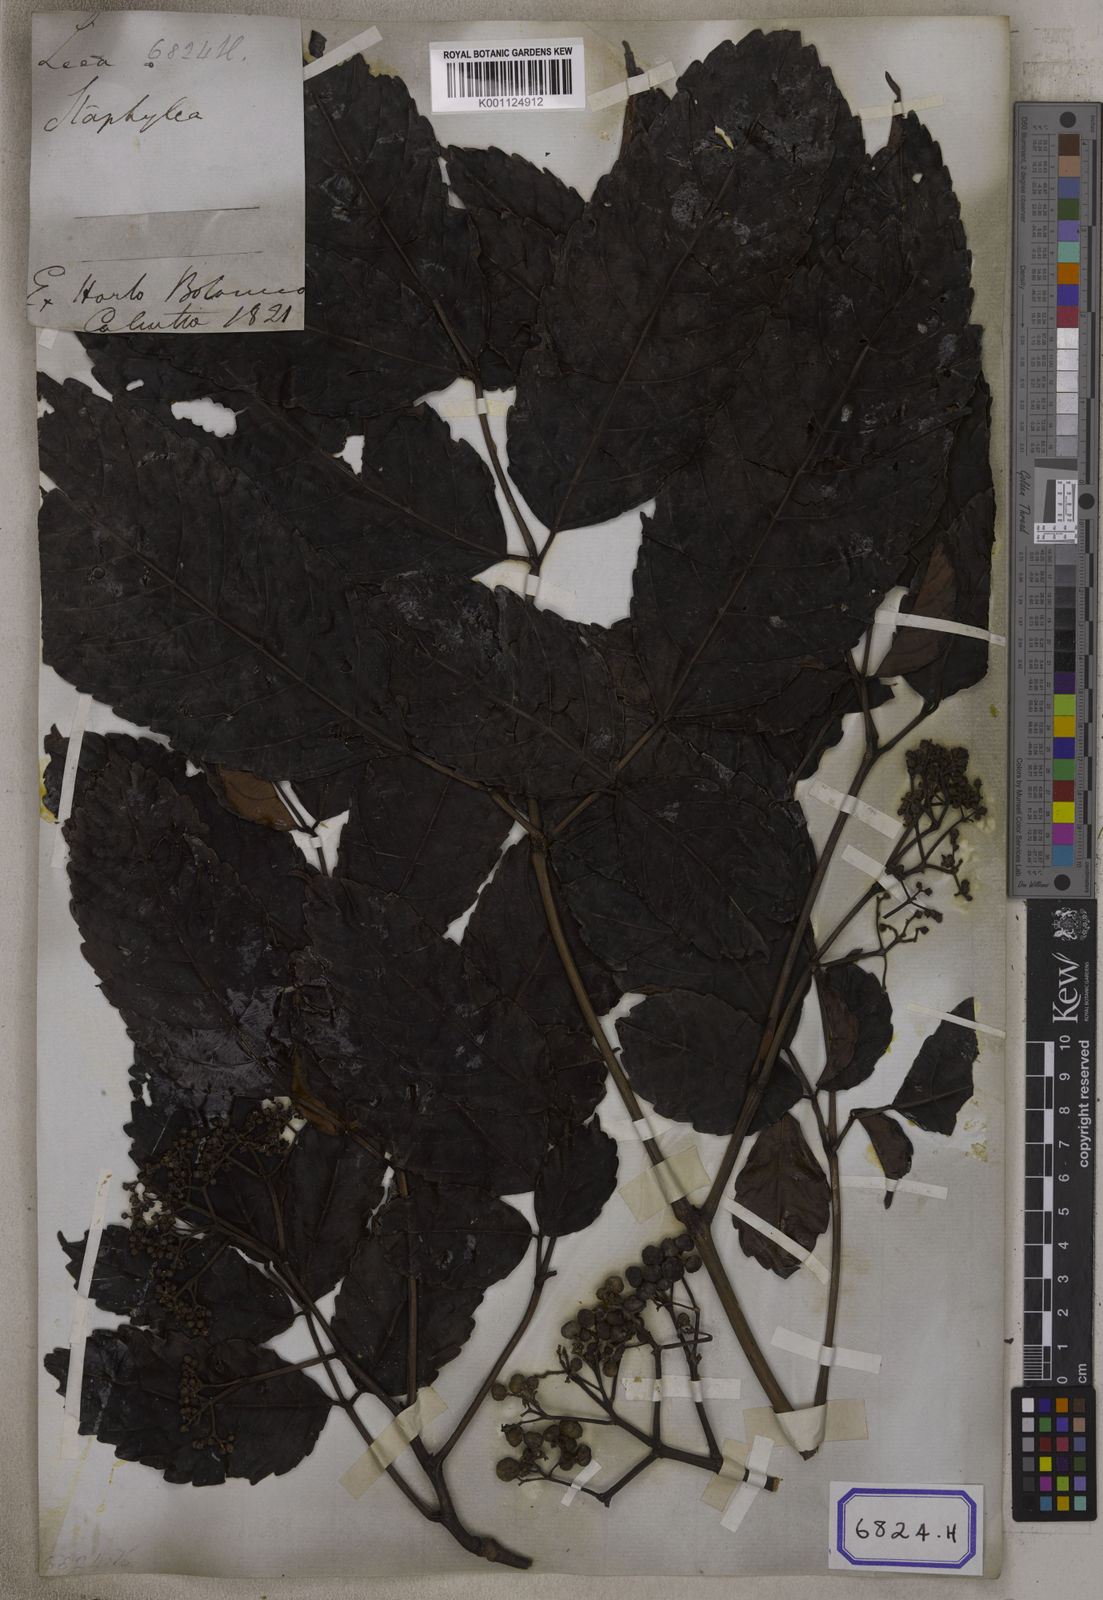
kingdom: Plantae
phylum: Tracheophyta
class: Magnoliopsida
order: Vitales
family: Vitaceae
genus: Leea
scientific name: Leea
